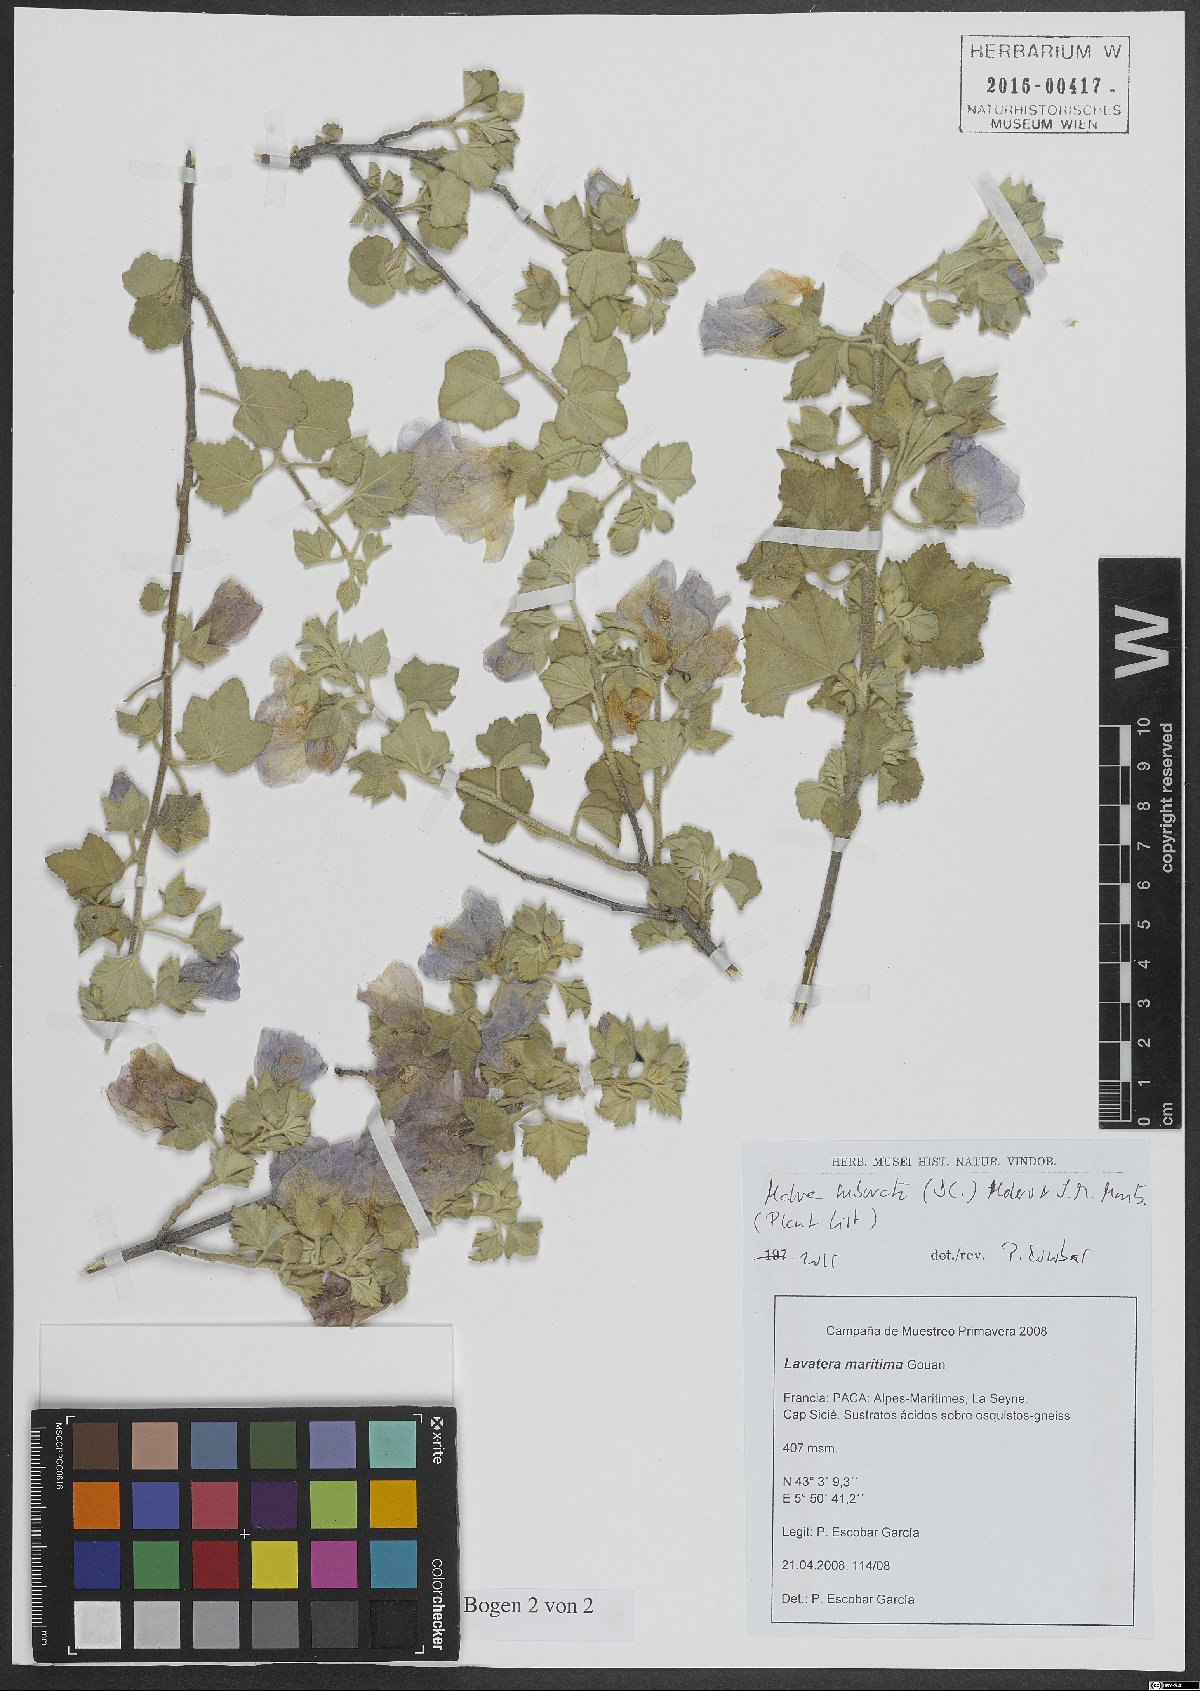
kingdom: Plantae
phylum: Tracheophyta
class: Magnoliopsida
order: Malvales
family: Malvaceae
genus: Malva
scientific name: Malva subovata
